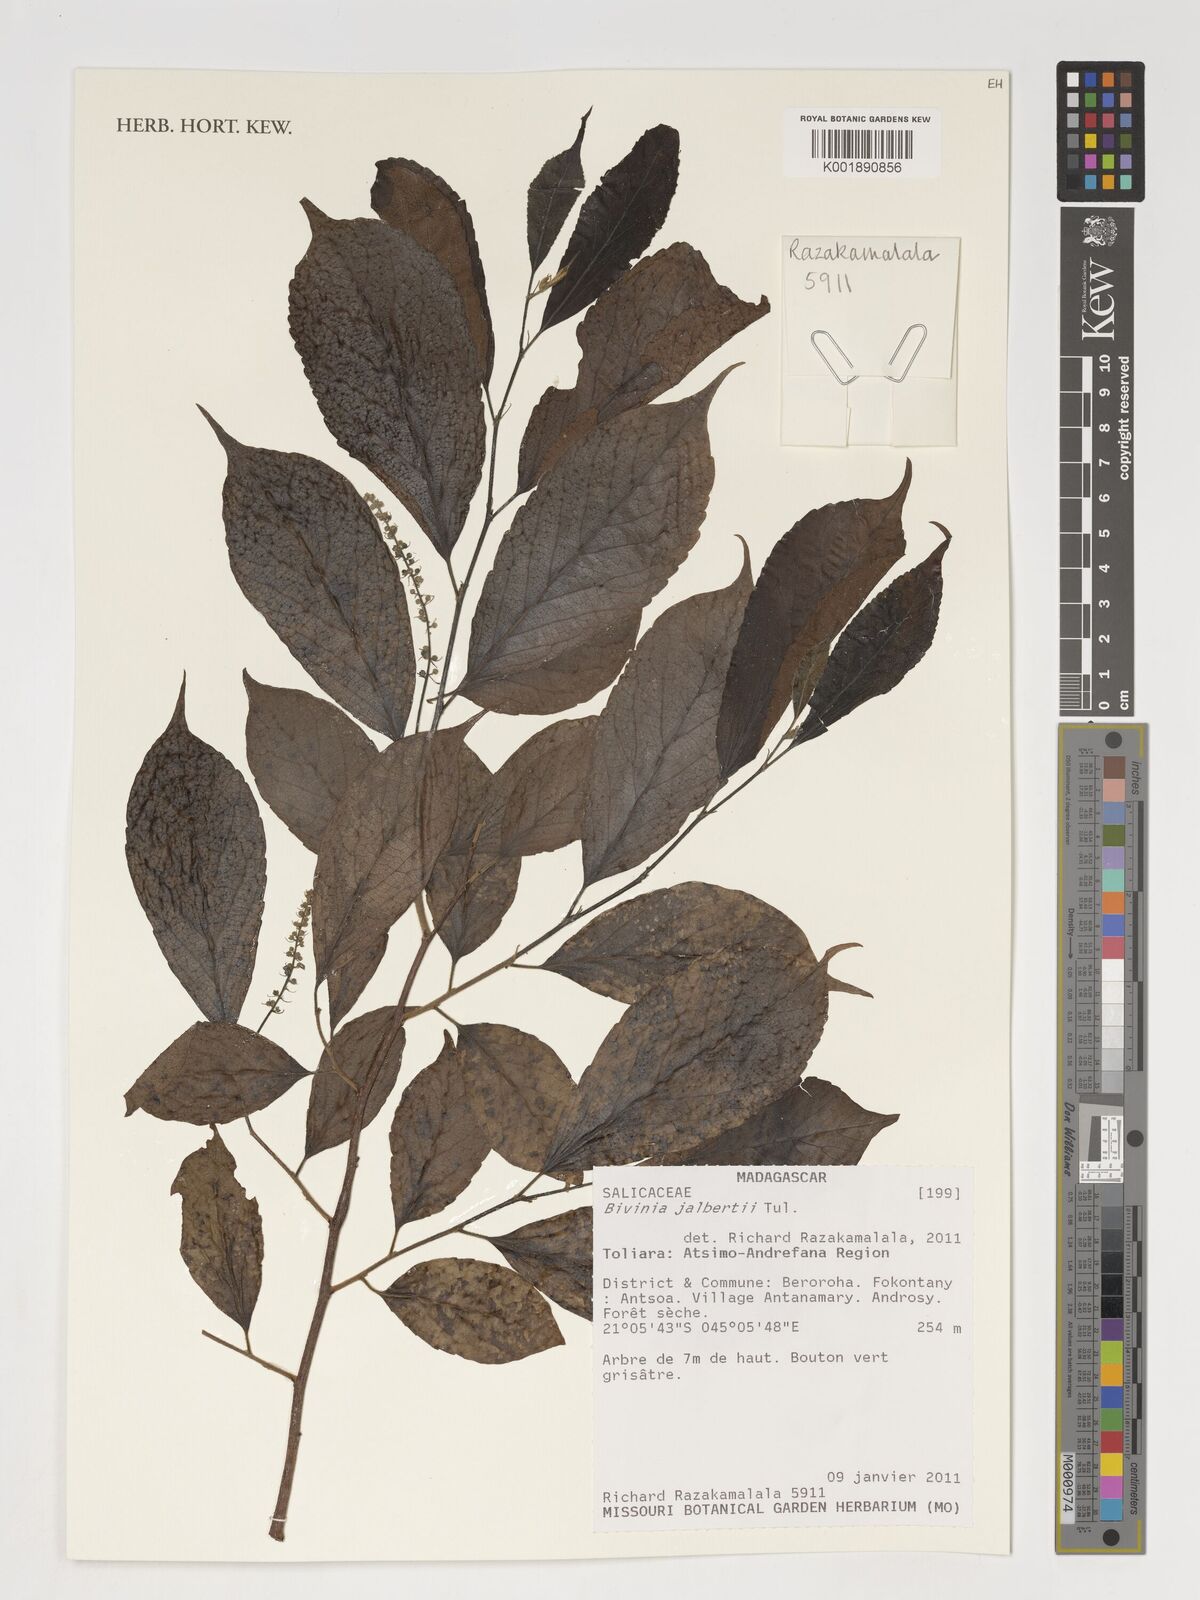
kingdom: Plantae
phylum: Tracheophyta
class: Magnoliopsida
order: Malpighiales
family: Salicaceae
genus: Bivinia
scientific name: Bivinia jalbertii
